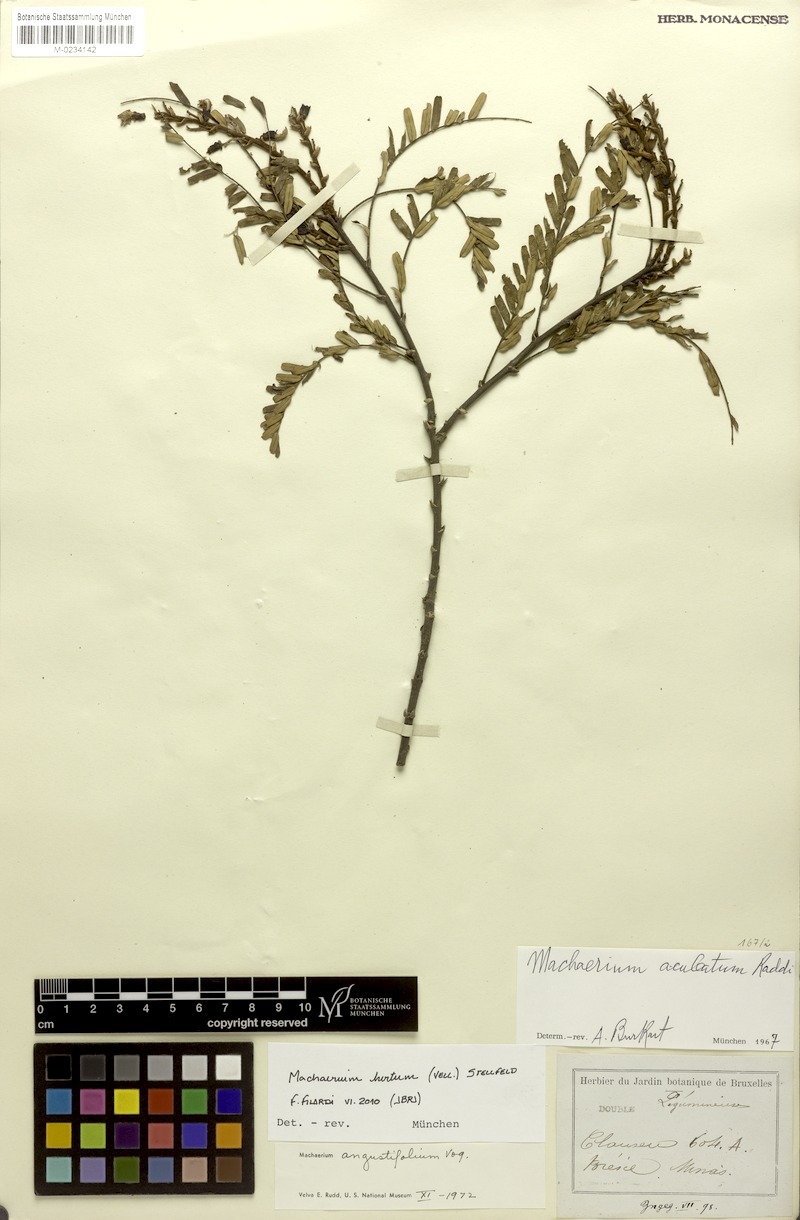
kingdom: Plantae
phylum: Tracheophyta
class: Magnoliopsida
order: Fabales
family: Fabaceae
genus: Machaerium
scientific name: Machaerium hirtum
